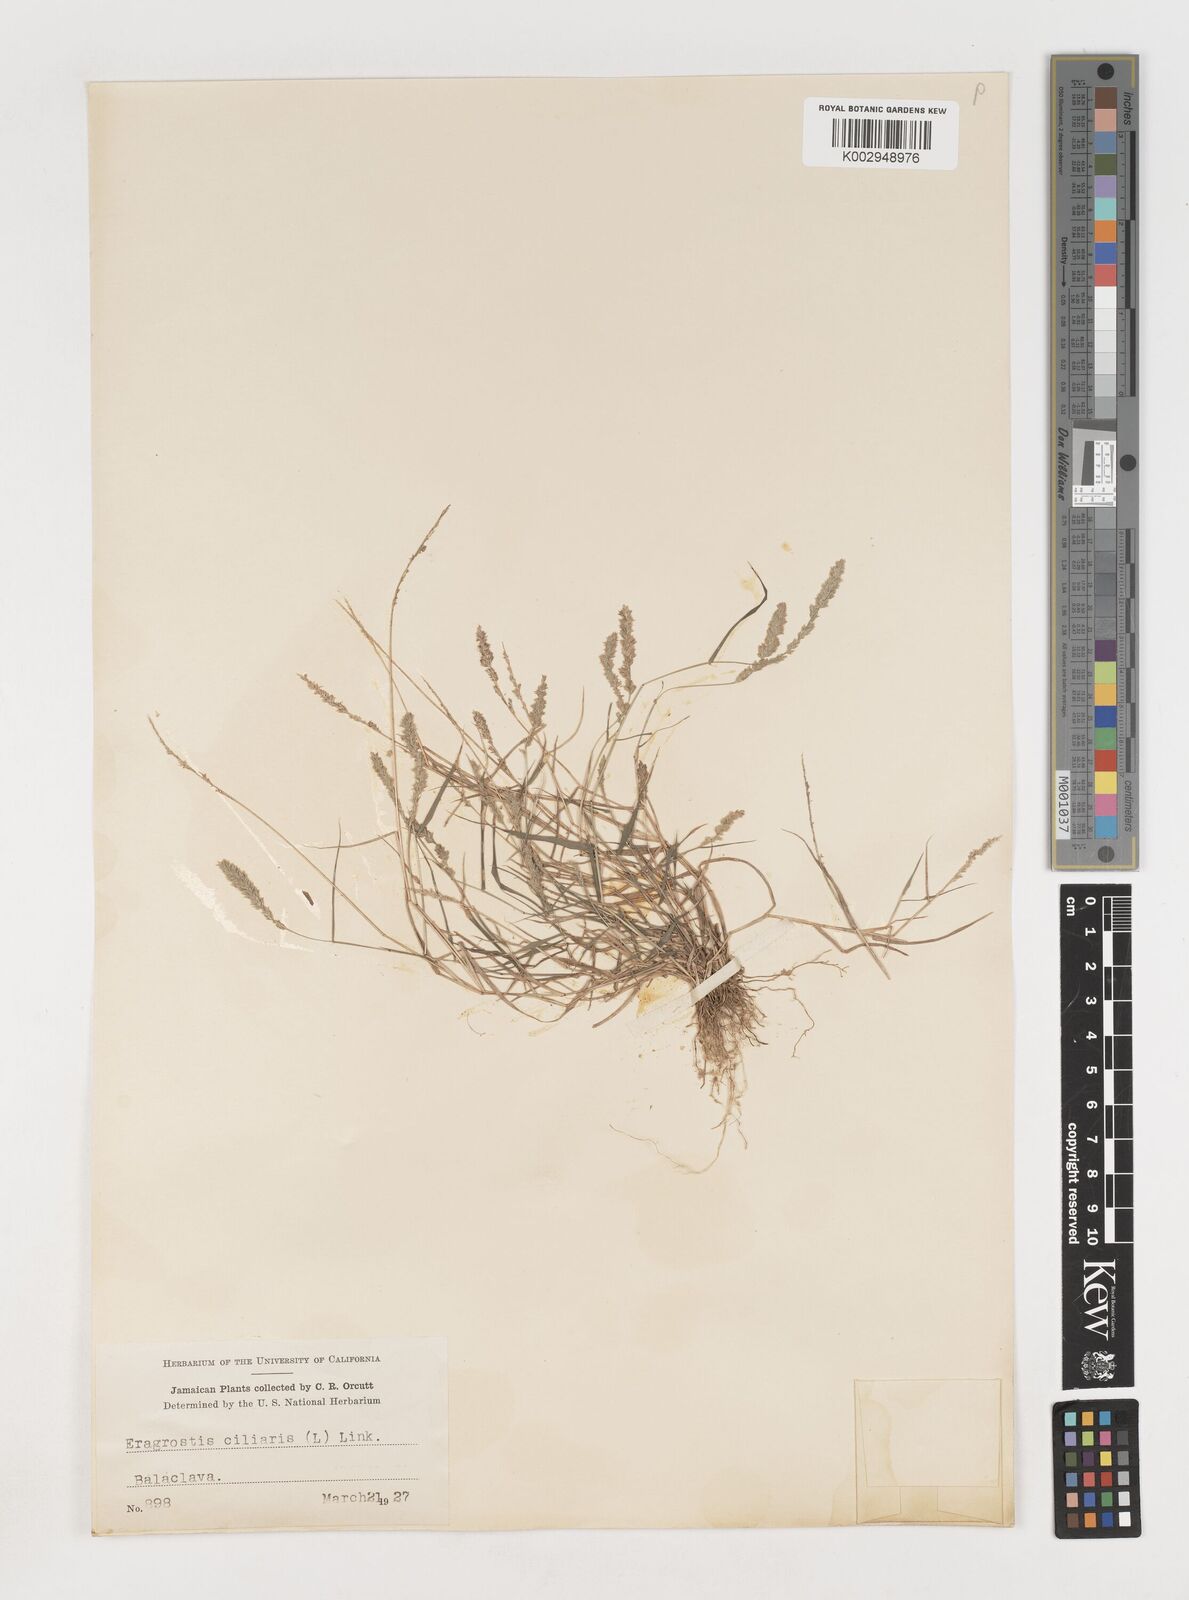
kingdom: Plantae
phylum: Tracheophyta
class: Liliopsida
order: Poales
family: Poaceae
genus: Eragrostis
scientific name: Eragrostis ciliaris
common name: Gophertail lovegrass
